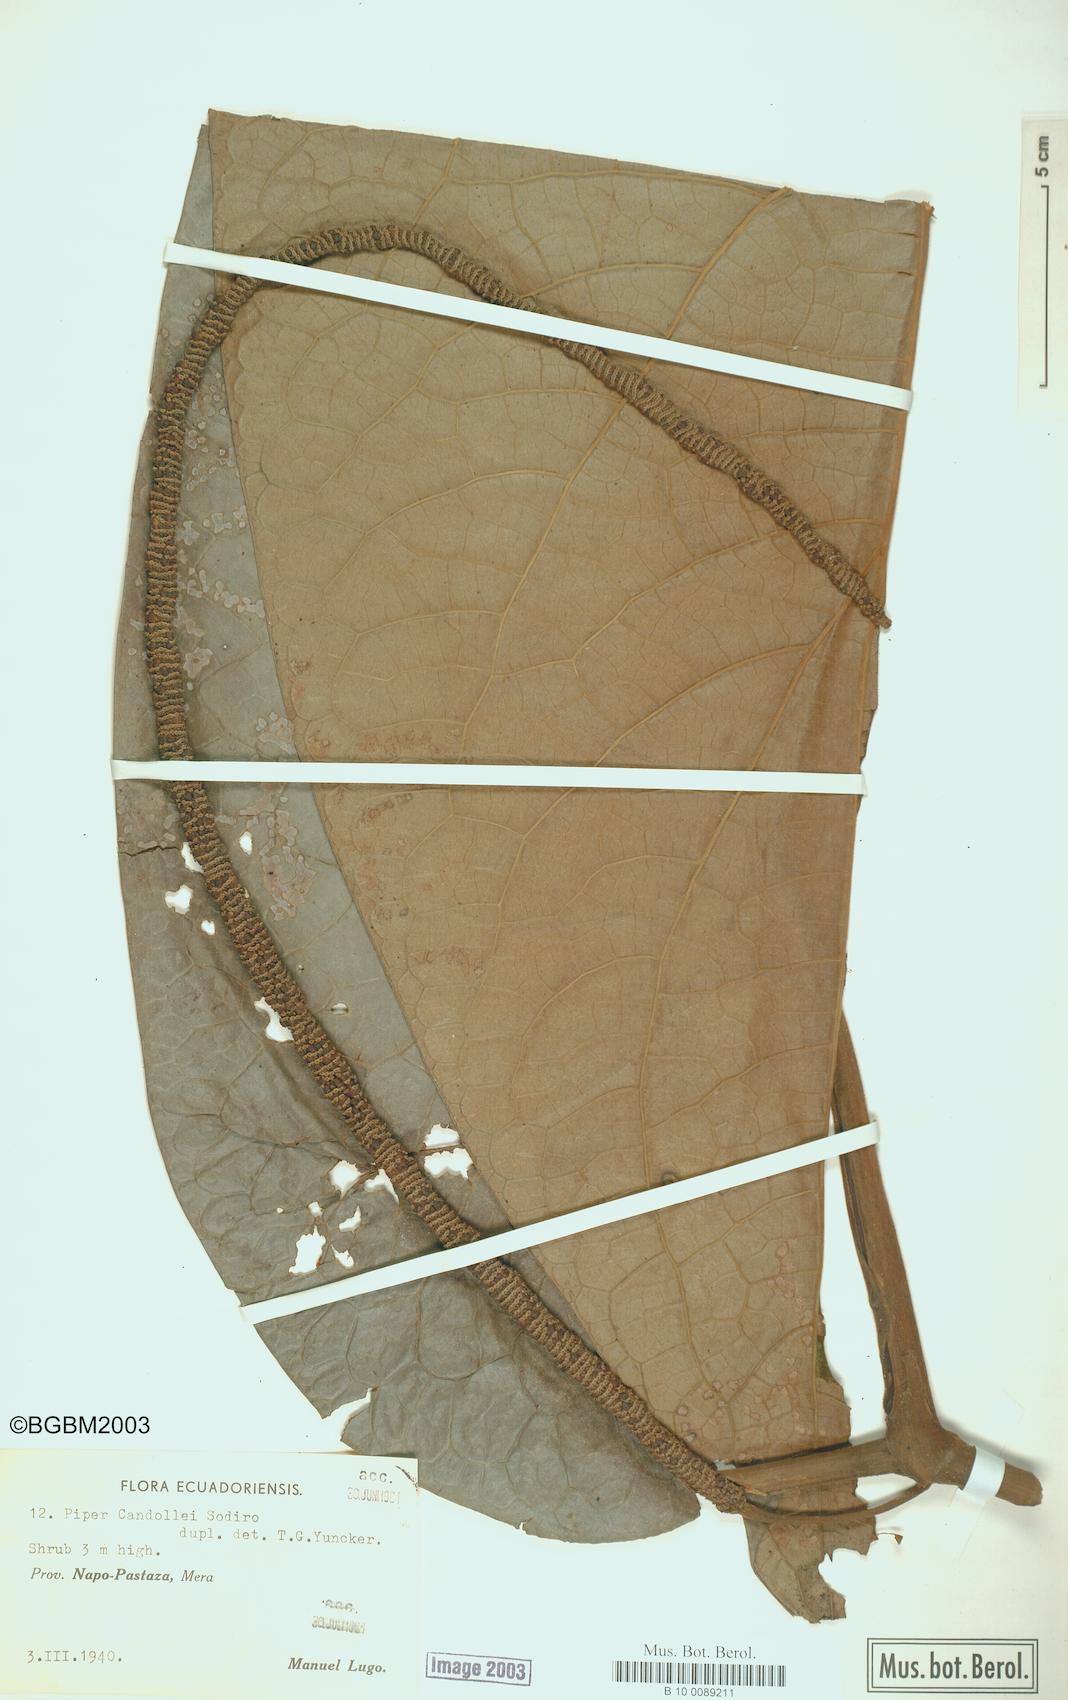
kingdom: Plantae
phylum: Tracheophyta
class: Magnoliopsida
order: Piperales
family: Piperaceae
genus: Piper
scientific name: Piper candollei
